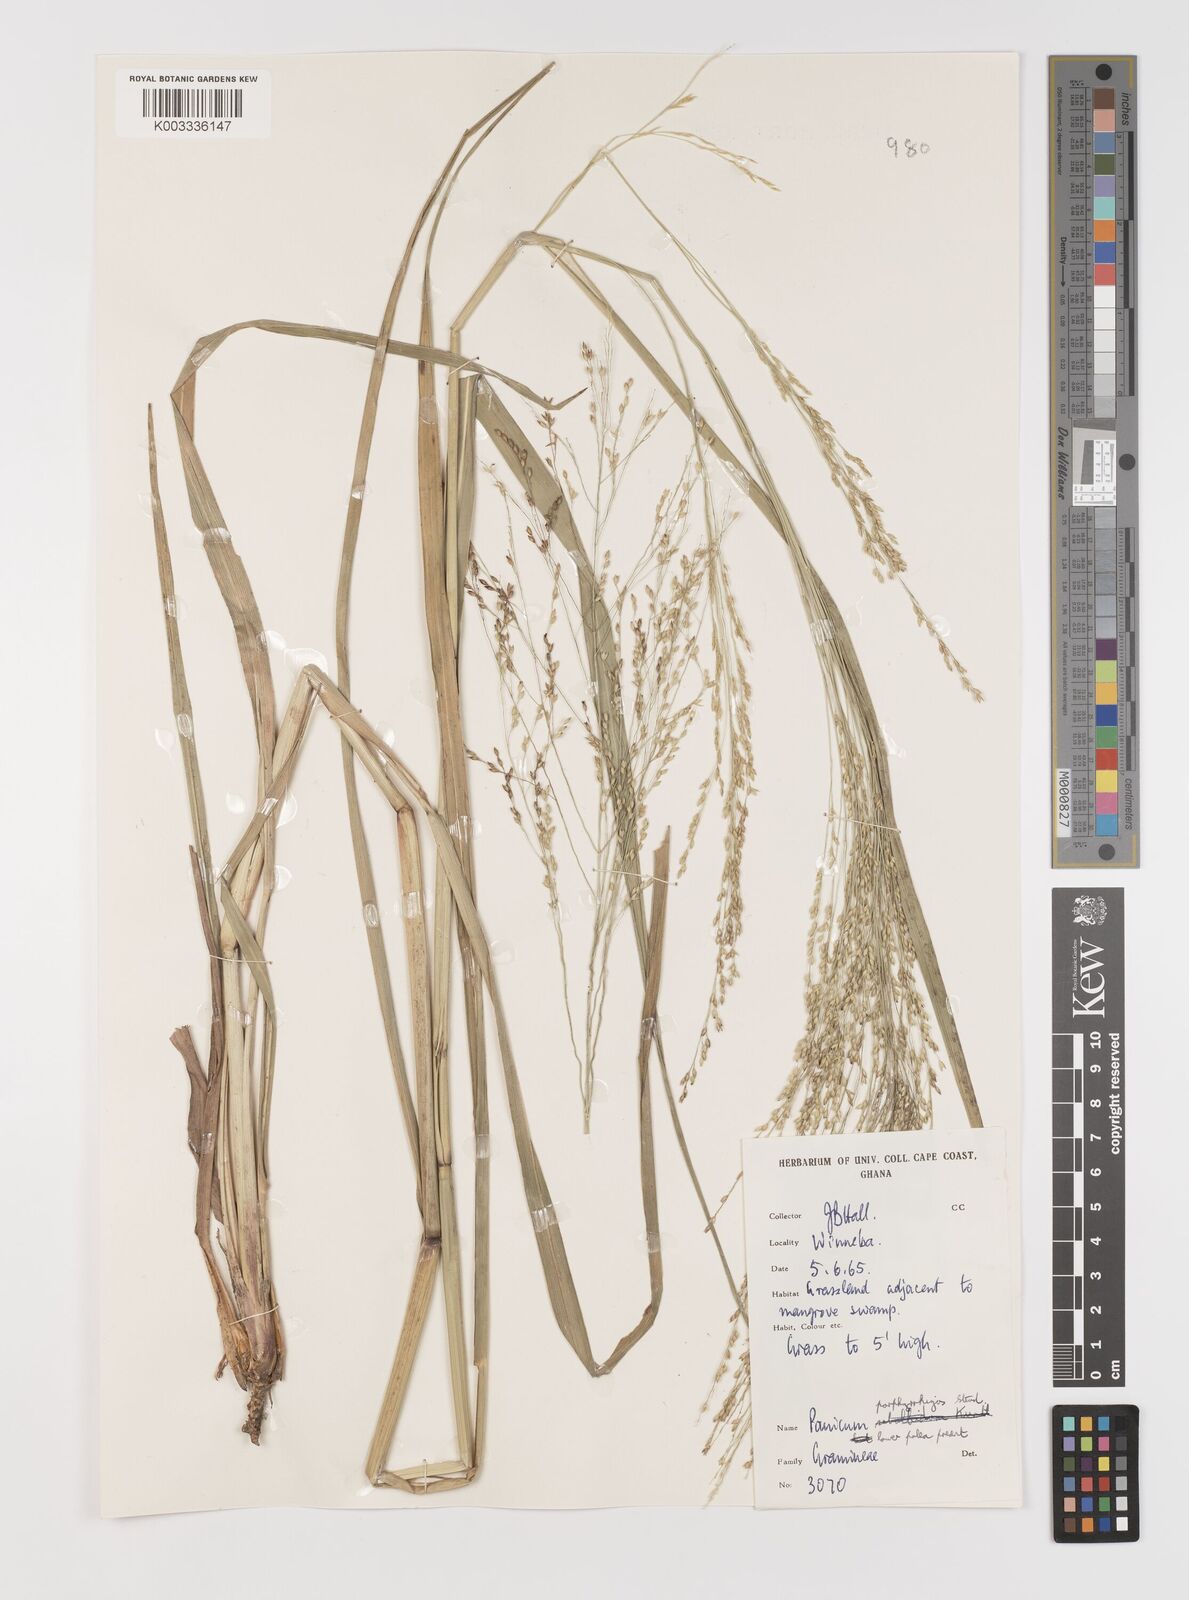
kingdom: Plantae
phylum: Tracheophyta
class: Liliopsida
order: Poales
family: Poaceae
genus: Panicum
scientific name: Panicum porphyrrhizos
